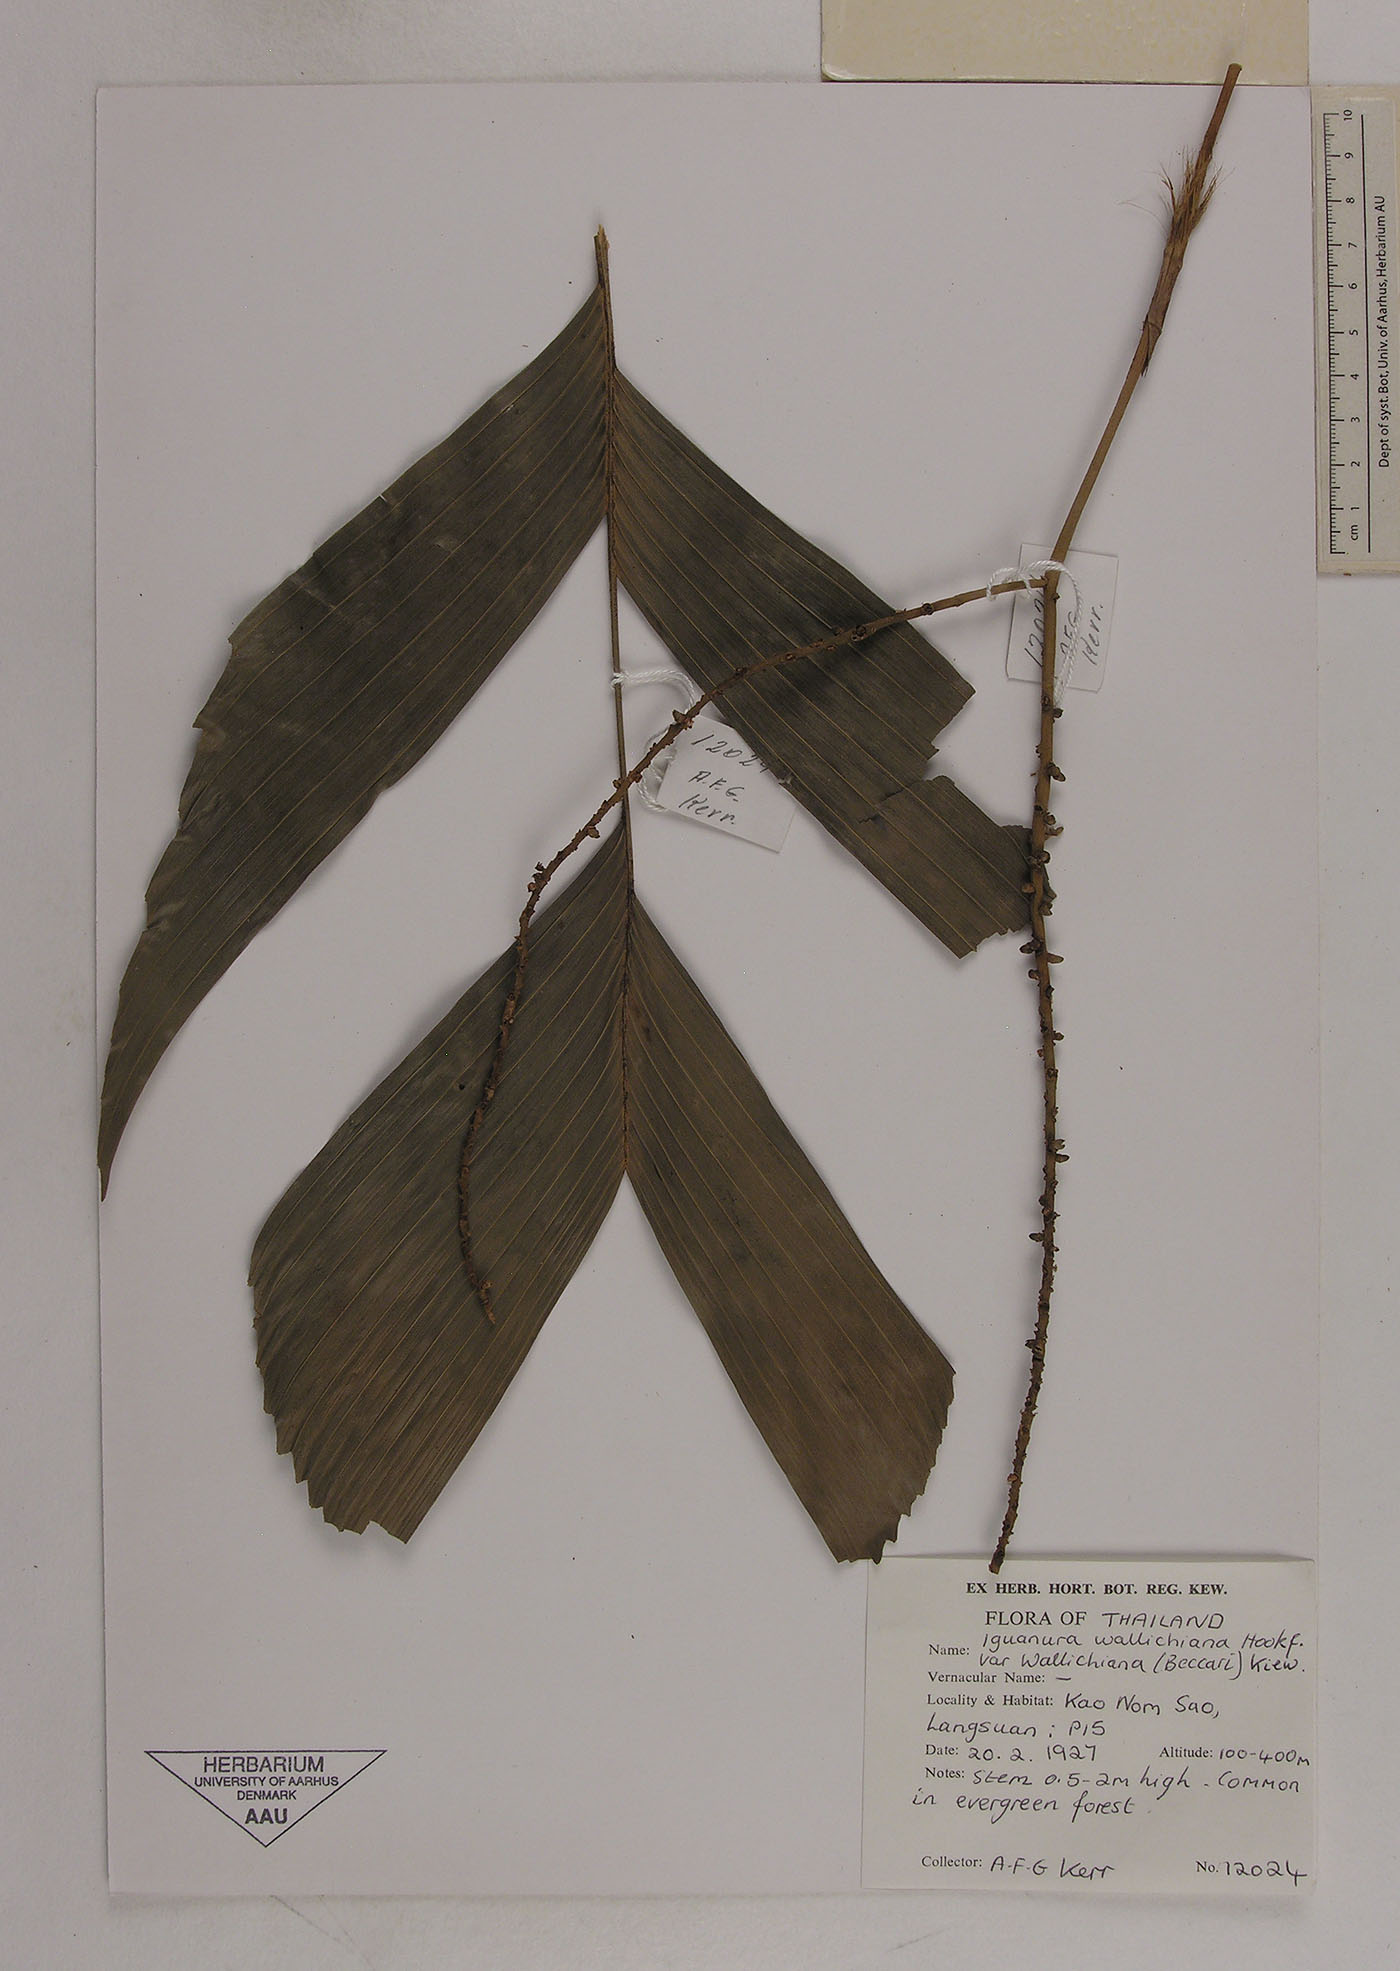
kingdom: Plantae
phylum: Tracheophyta
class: Liliopsida
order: Arecales
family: Arecaceae
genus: Iguanura
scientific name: Iguanura wallichiana
